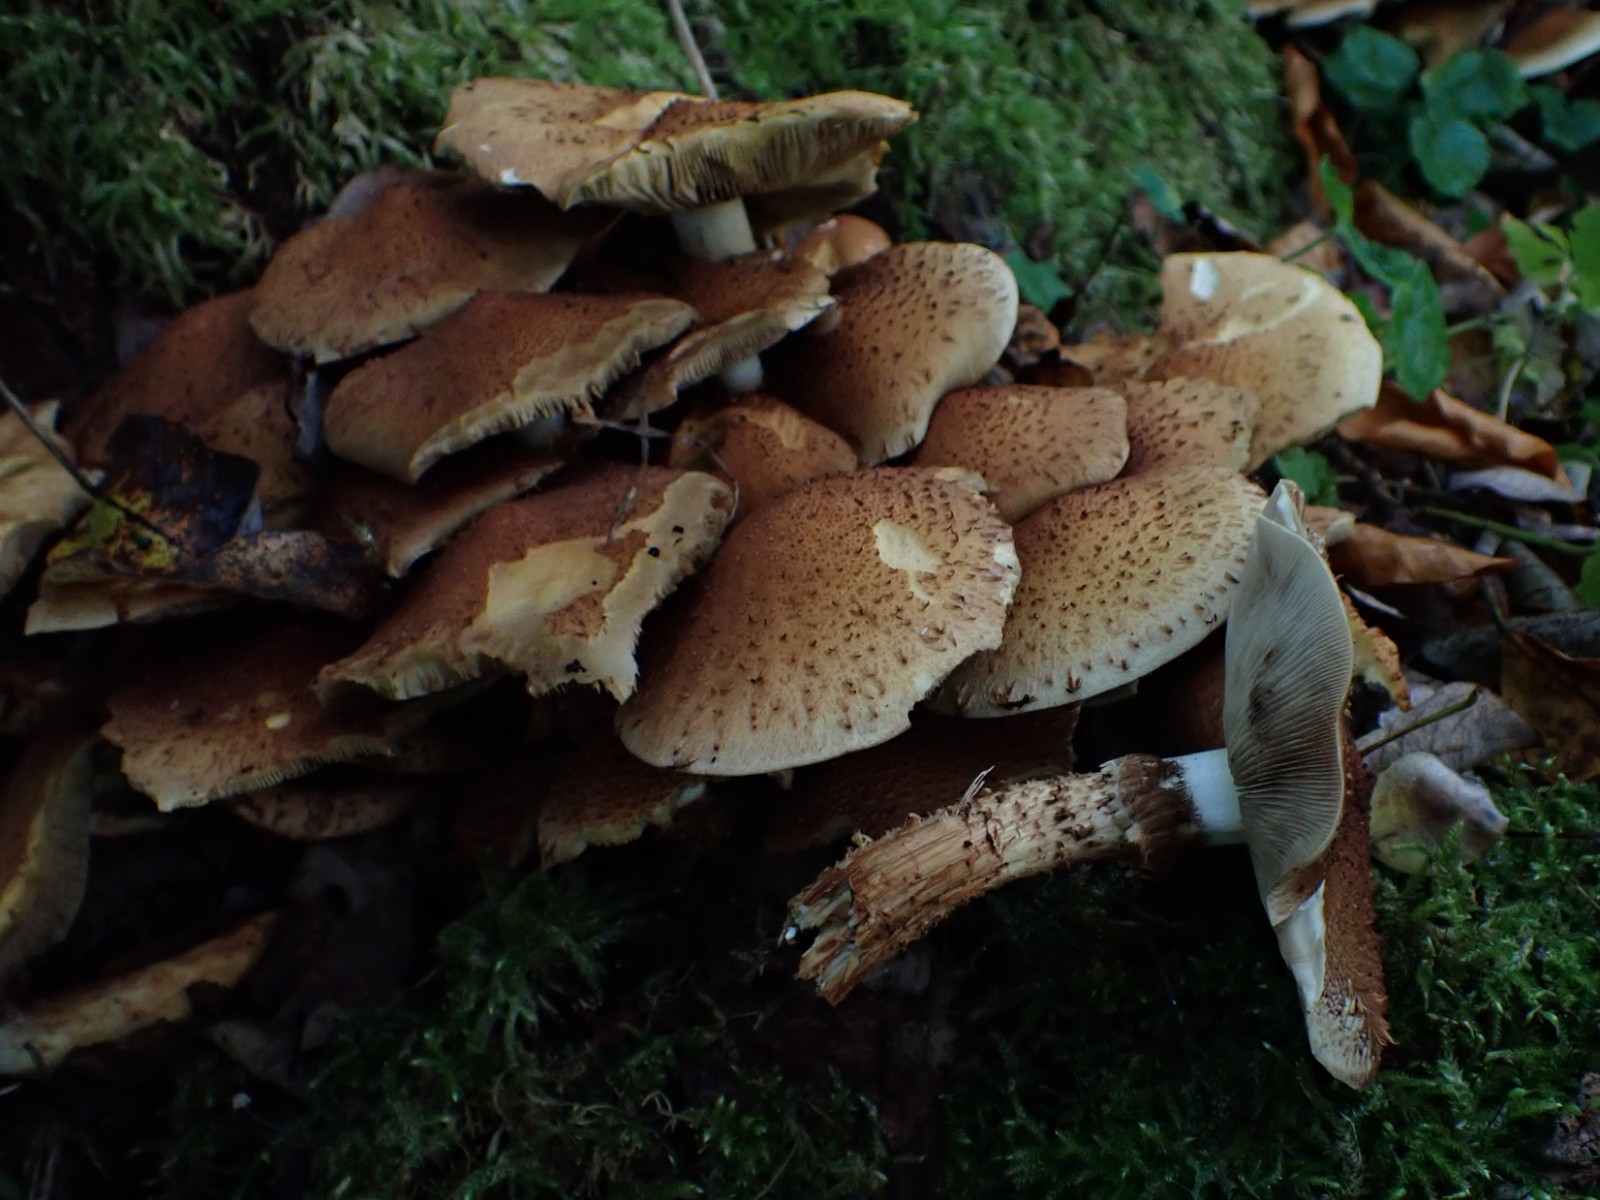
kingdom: Fungi
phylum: Basidiomycota
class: Agaricomycetes
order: Agaricales
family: Strophariaceae
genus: Pholiota
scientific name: Pholiota squarrosa
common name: krumskællet skælhat
